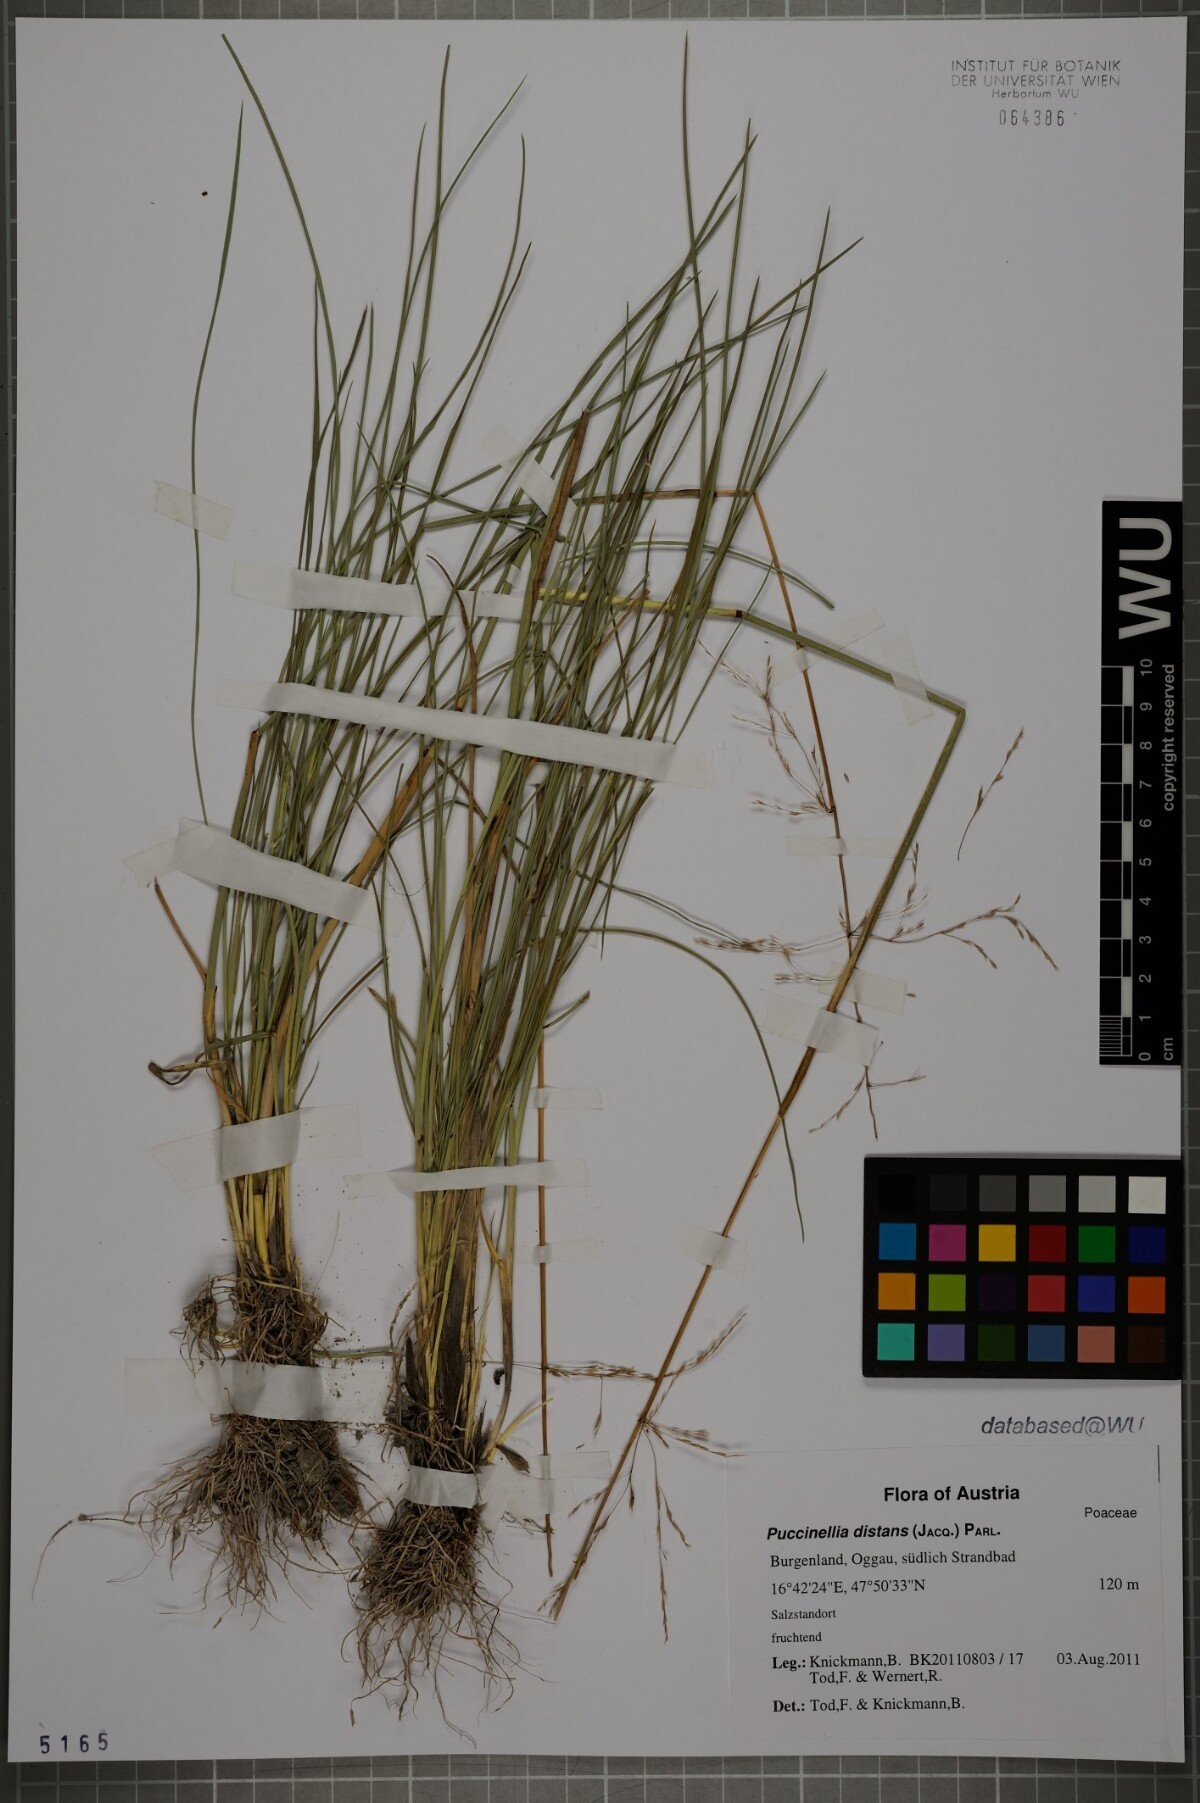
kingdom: Plantae
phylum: Tracheophyta
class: Liliopsida
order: Poales
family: Poaceae
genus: Puccinellia
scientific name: Puccinellia distans
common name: Weeping alkaligrass
